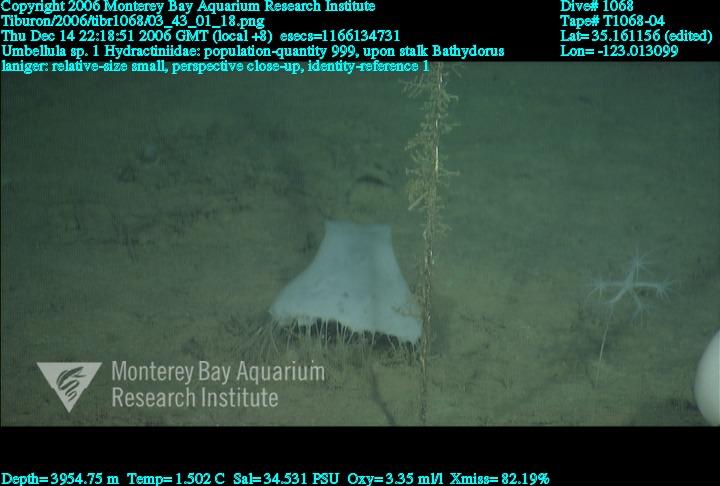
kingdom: Animalia
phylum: Porifera
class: Hexactinellida
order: Lyssacinosida
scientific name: Lyssacinosida
